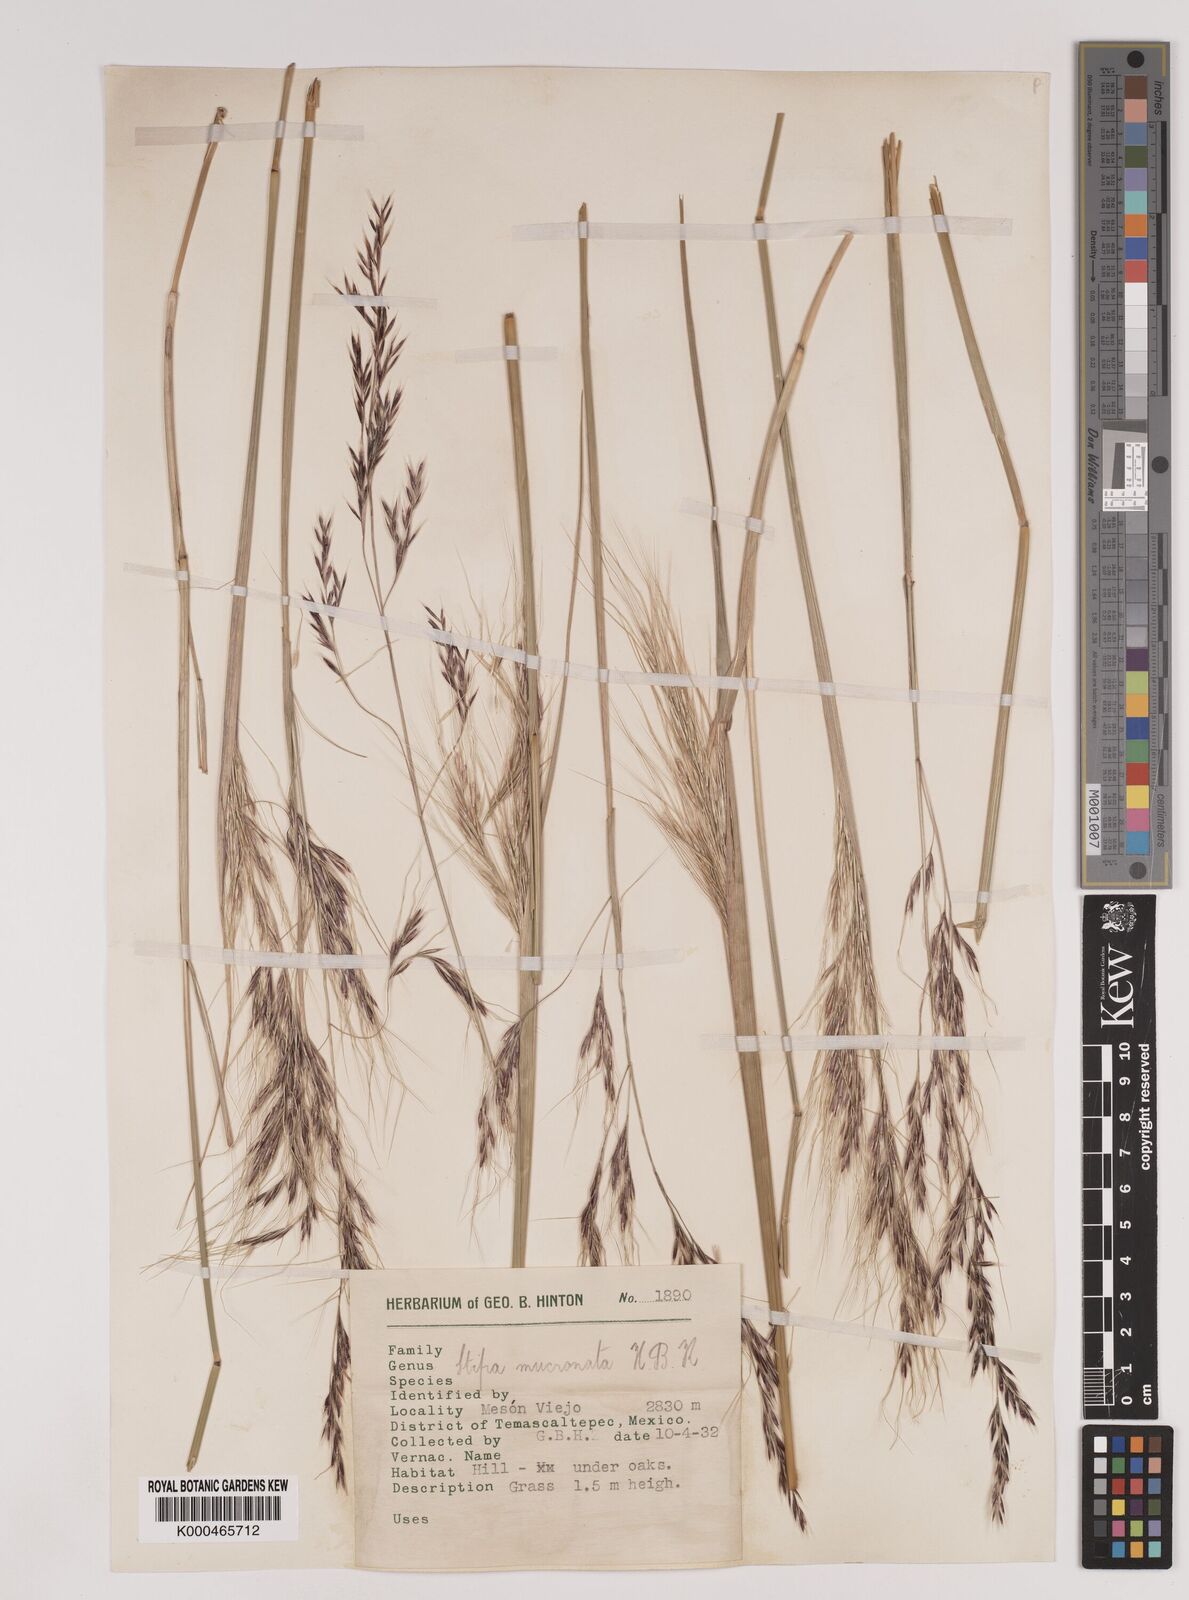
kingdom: Plantae
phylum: Tracheophyta
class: Liliopsida
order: Poales
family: Poaceae
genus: Nassella
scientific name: Nassella mucronata
